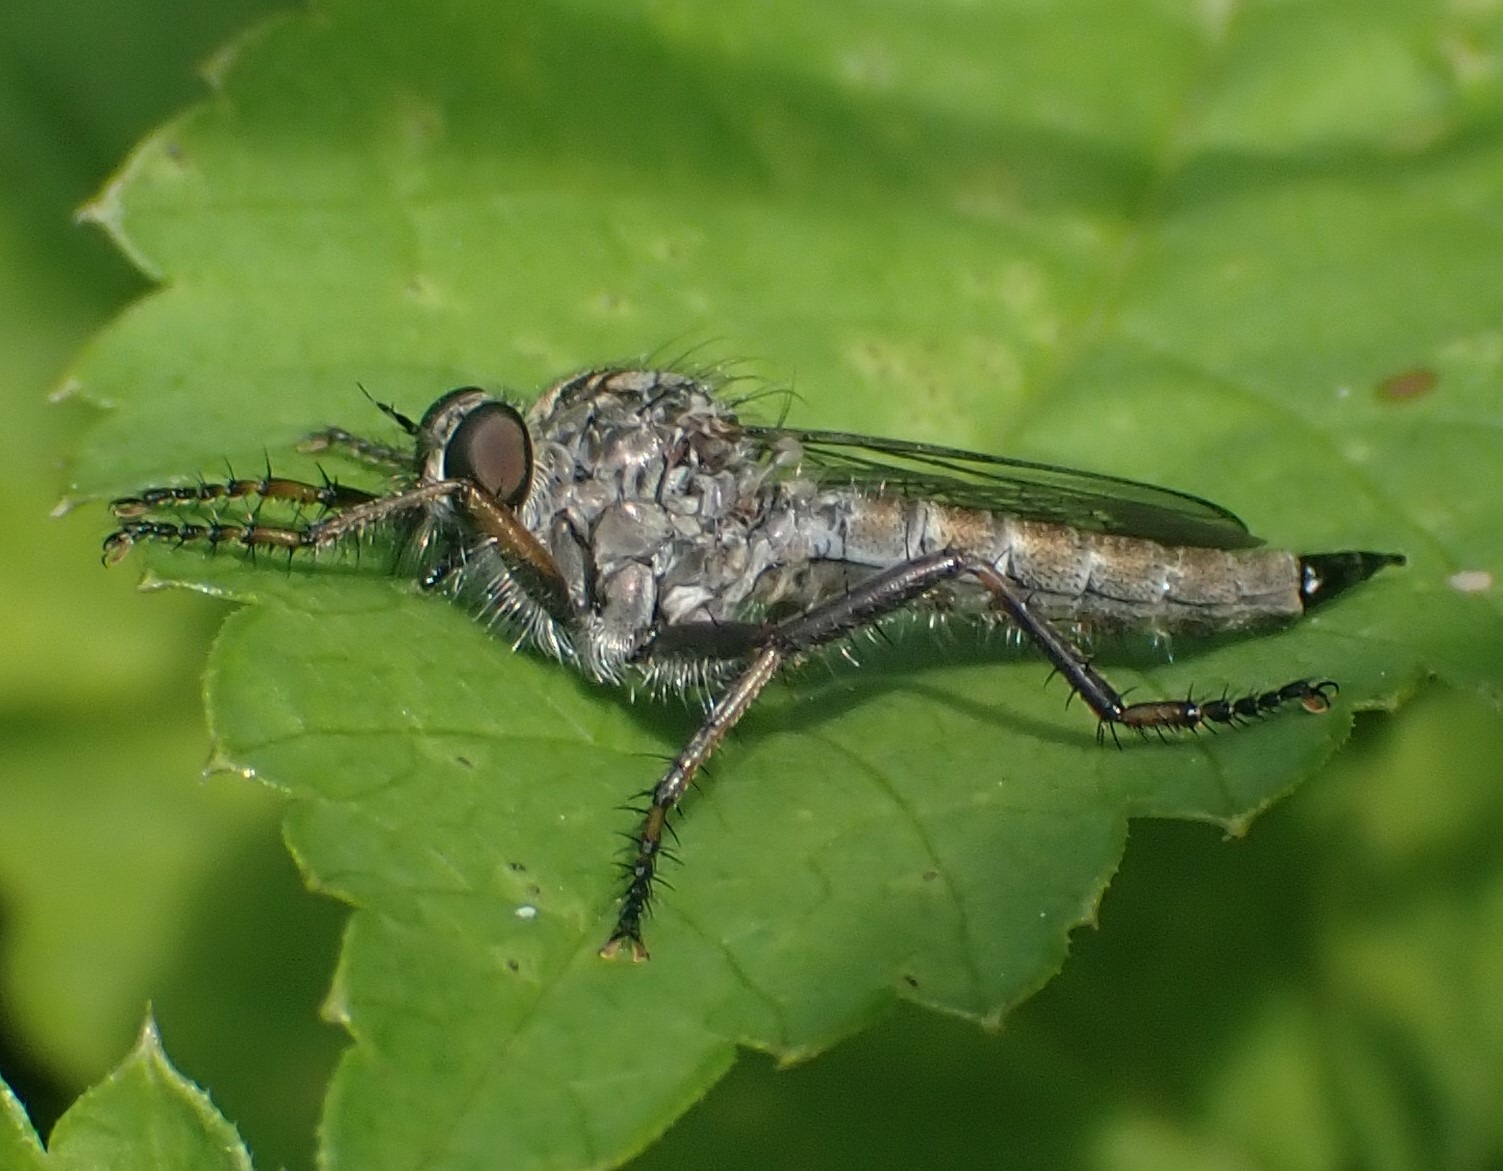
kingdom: Animalia
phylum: Arthropoda
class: Insecta
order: Diptera
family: Asilidae
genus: Machimus
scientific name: Machimus atricapillus
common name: Sort hårrovflue
